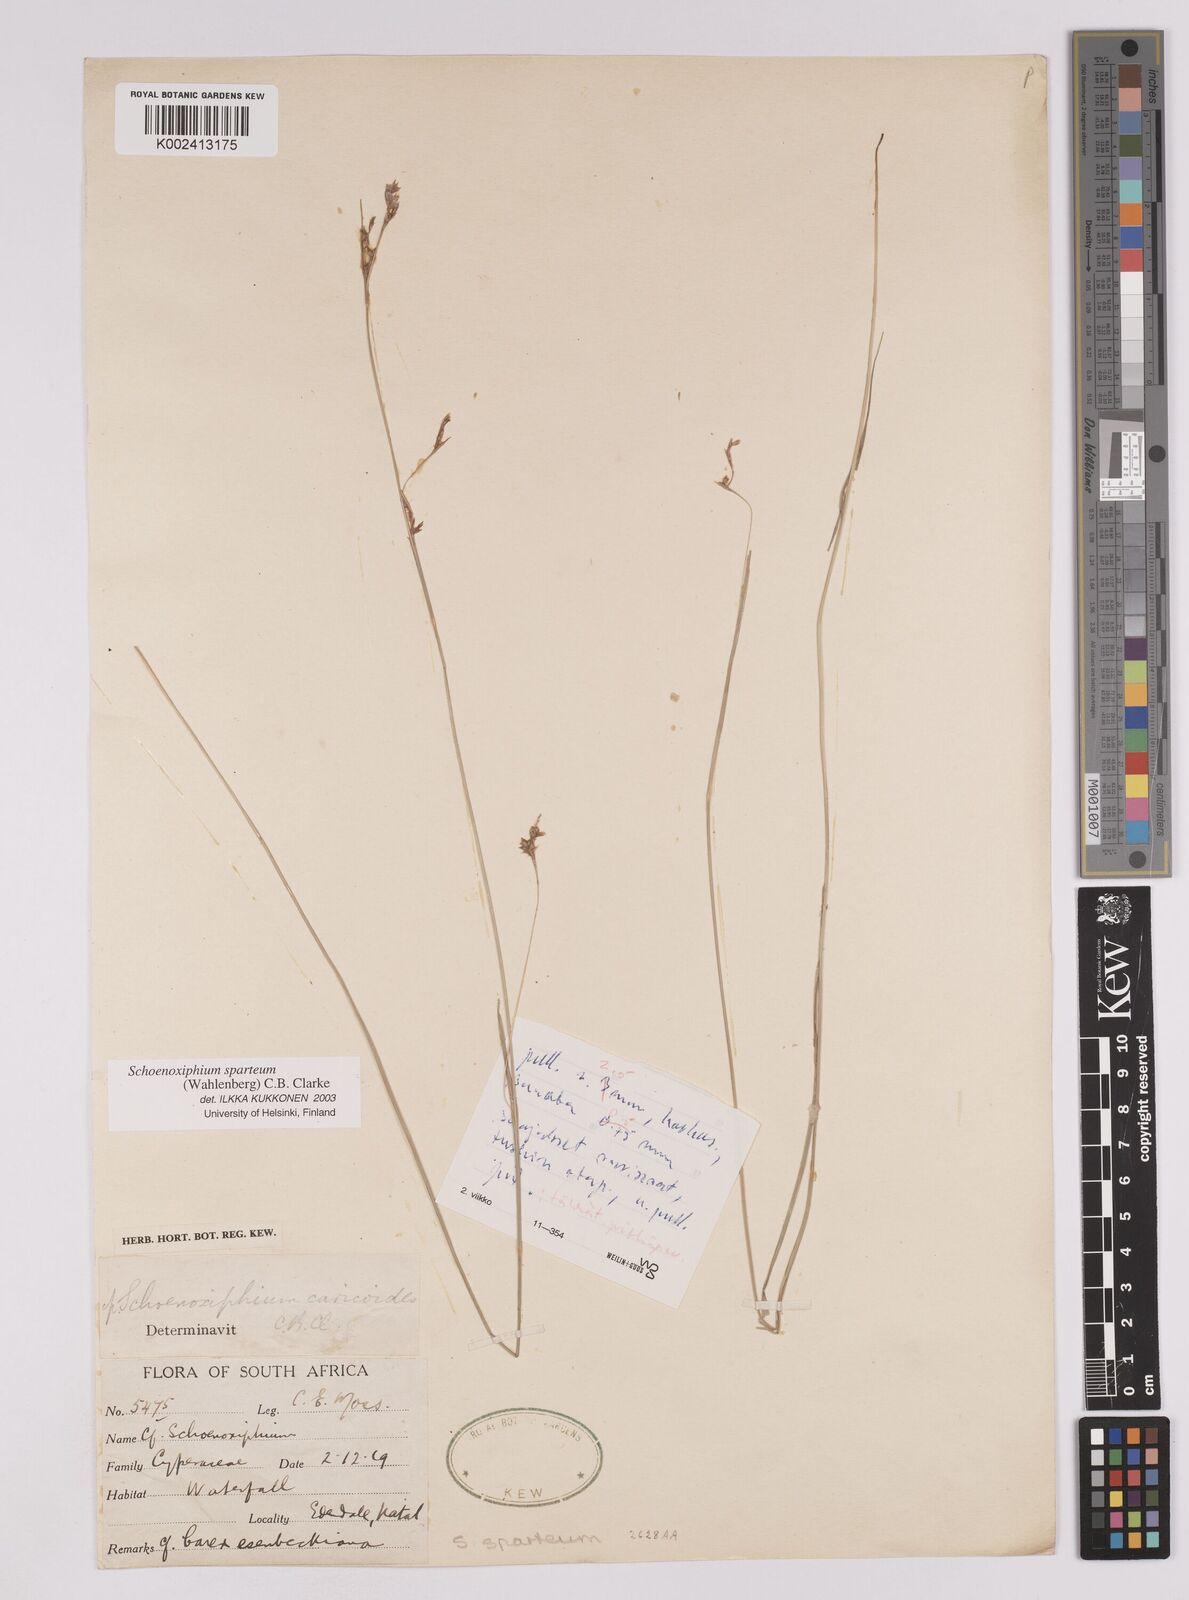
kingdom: Plantae
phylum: Tracheophyta
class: Liliopsida
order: Poales
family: Cyperaceae
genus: Carex
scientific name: Carex spartea
